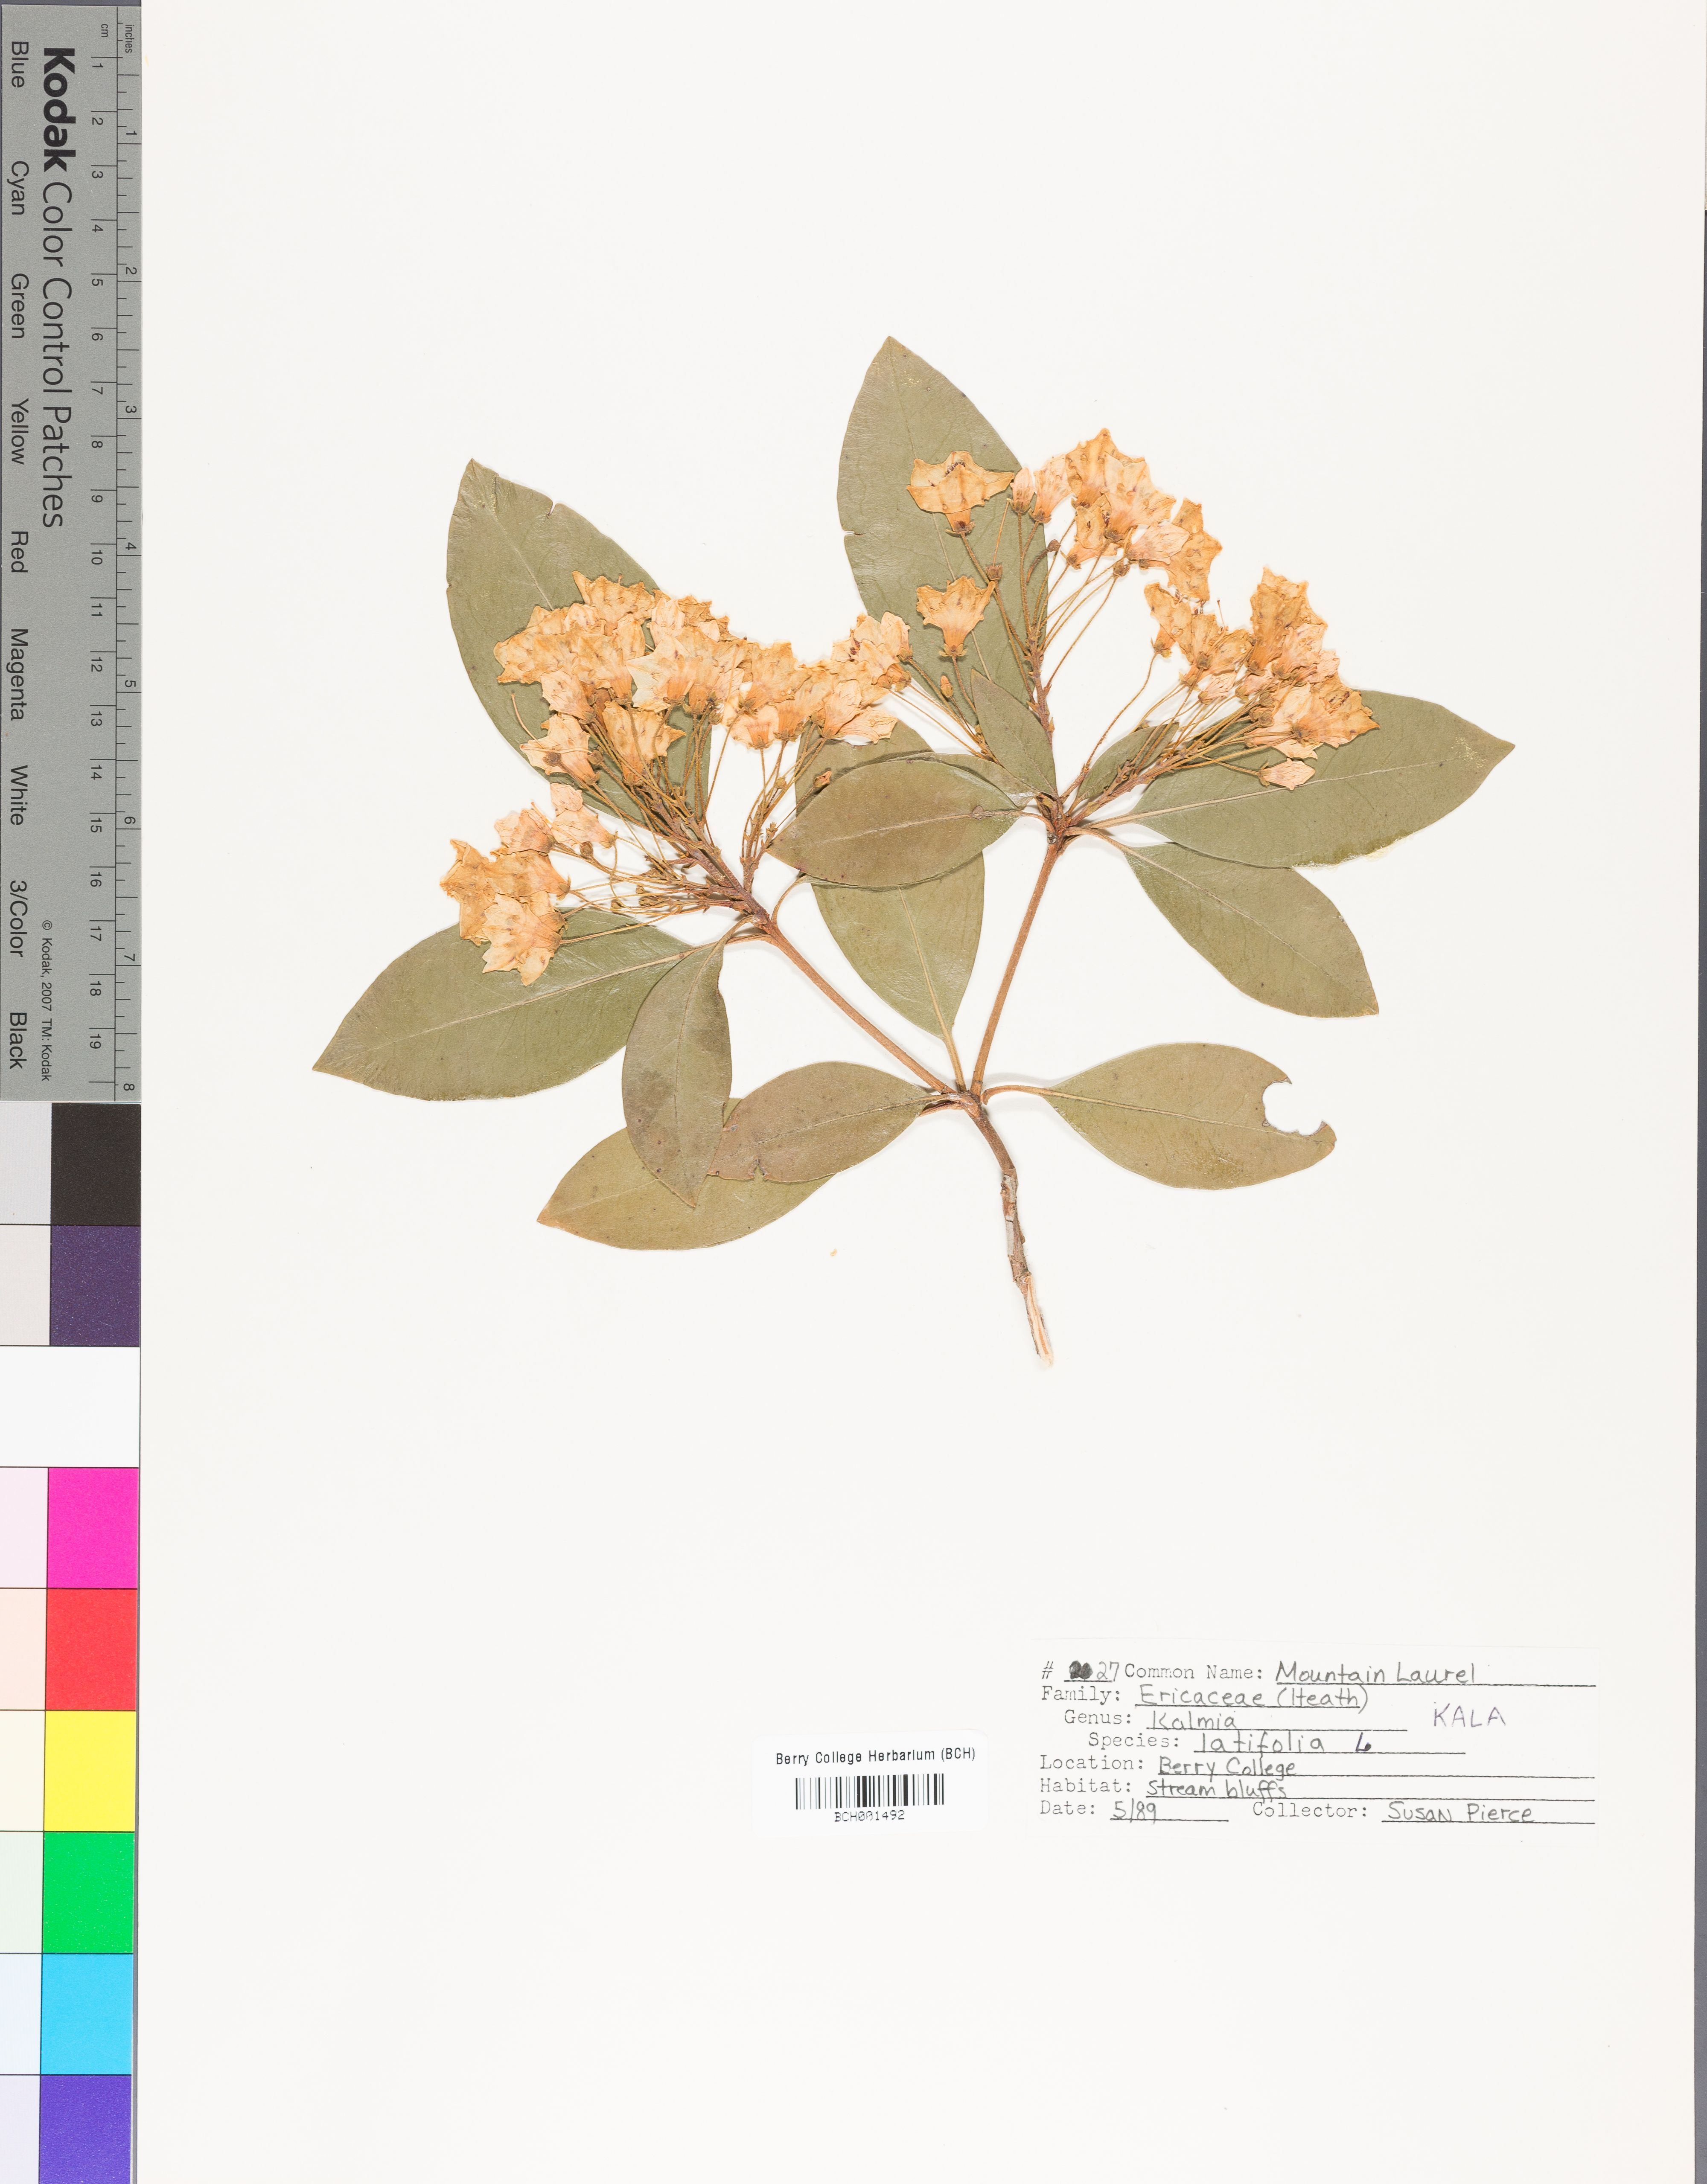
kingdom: Plantae
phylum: Tracheophyta
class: Magnoliopsida
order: Ericales
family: Ericaceae
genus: Kalmia
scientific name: Kalmia latifolia
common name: Mountain-laurel
